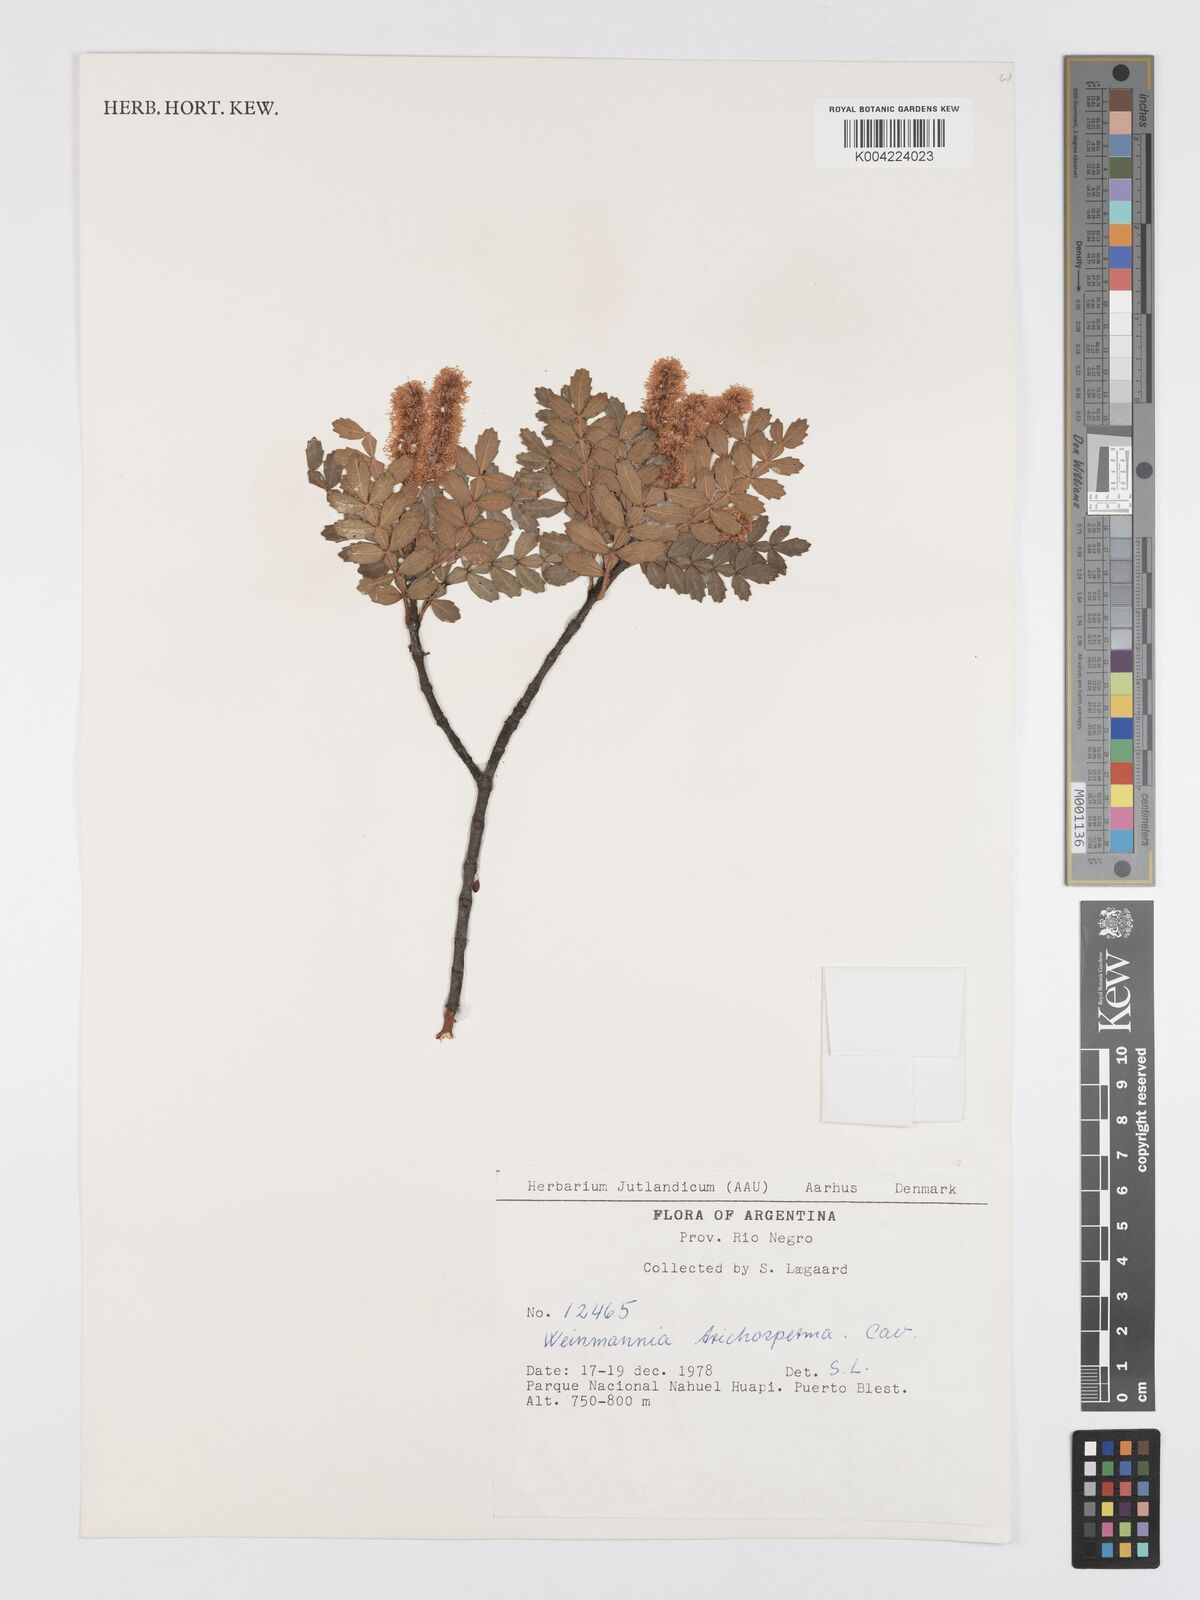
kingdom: Plantae
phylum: Tracheophyta
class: Magnoliopsida
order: Oxalidales
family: Cunoniaceae
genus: Weinmannia
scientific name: Weinmannia trichosperma
